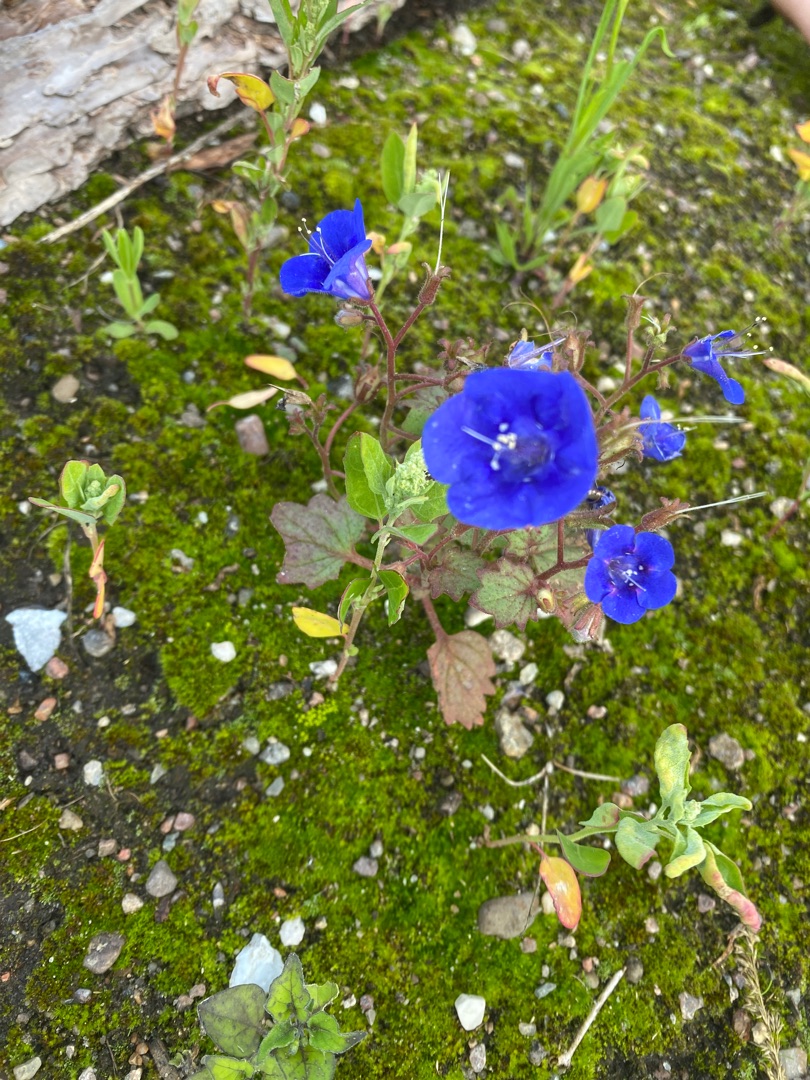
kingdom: Plantae
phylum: Tracheophyta
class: Magnoliopsida
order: Boraginales
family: Hydrophyllaceae
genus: Phacelia
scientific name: Phacelia campanularia
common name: Klokke-honningurt
